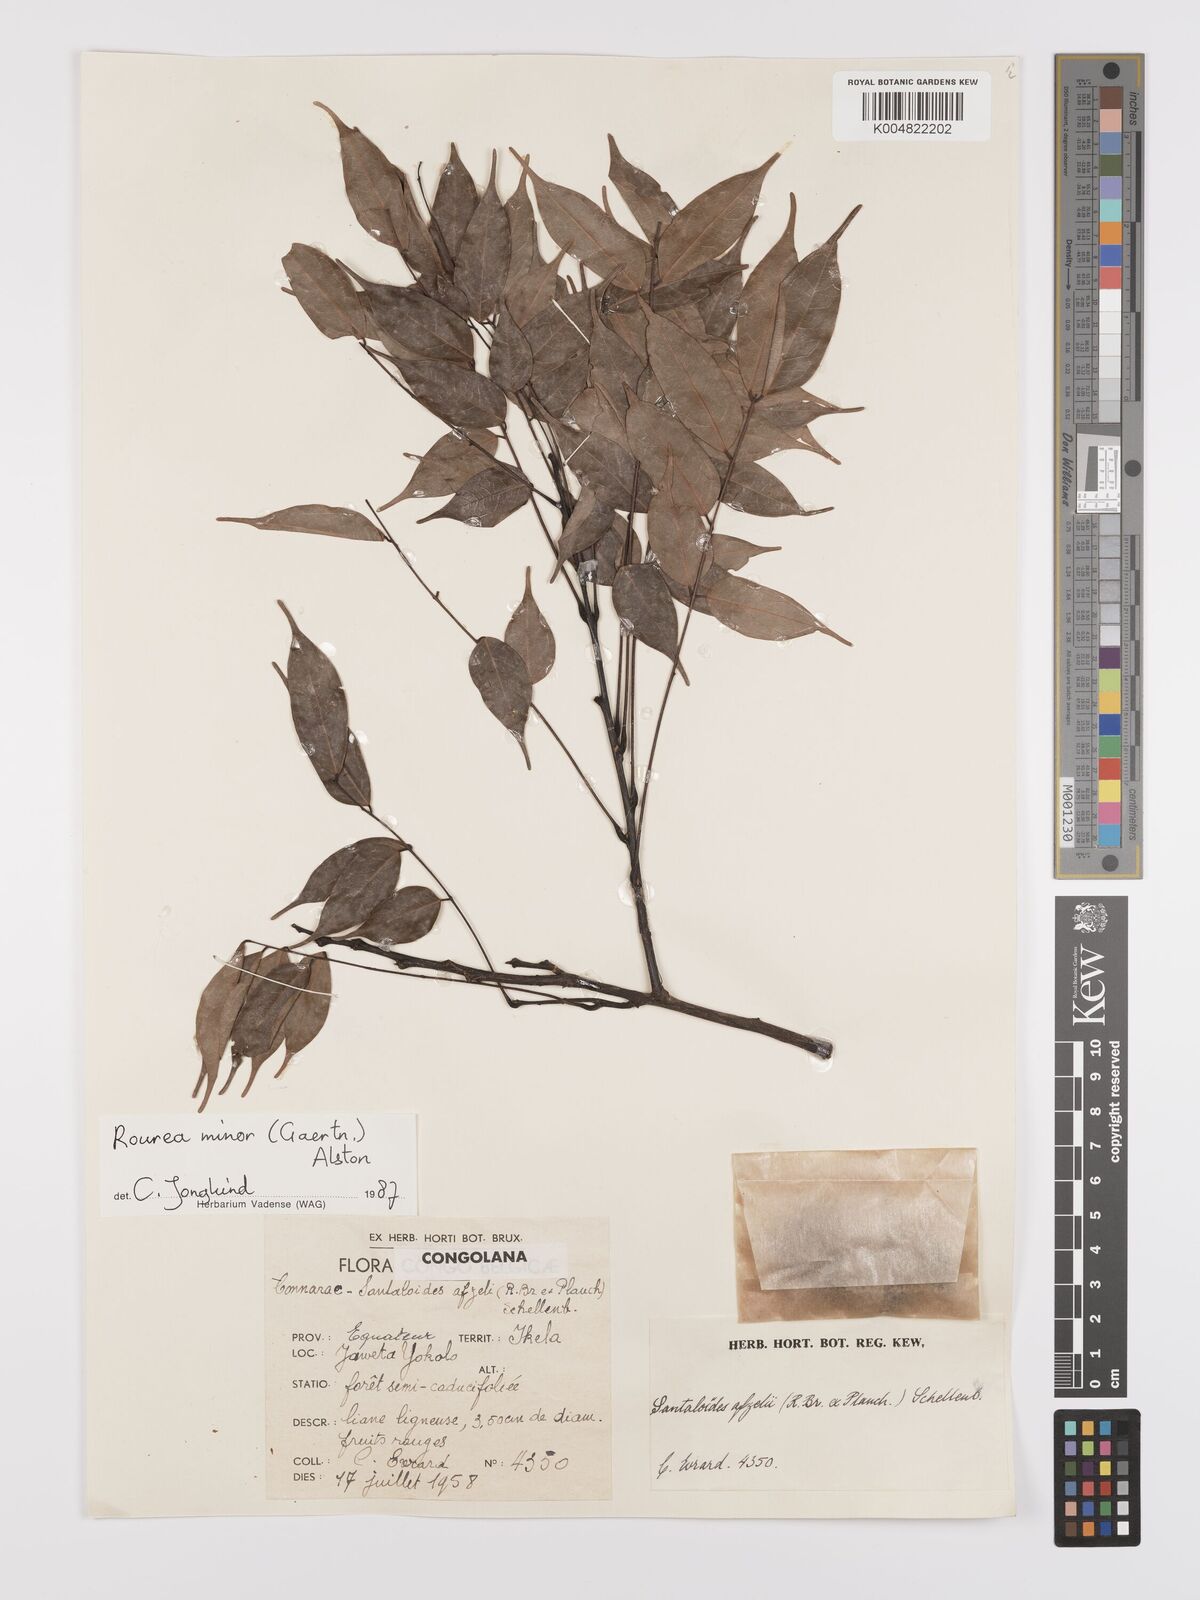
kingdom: Plantae
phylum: Tracheophyta
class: Magnoliopsida
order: Oxalidales
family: Connaraceae
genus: Rourea
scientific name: Rourea minor
